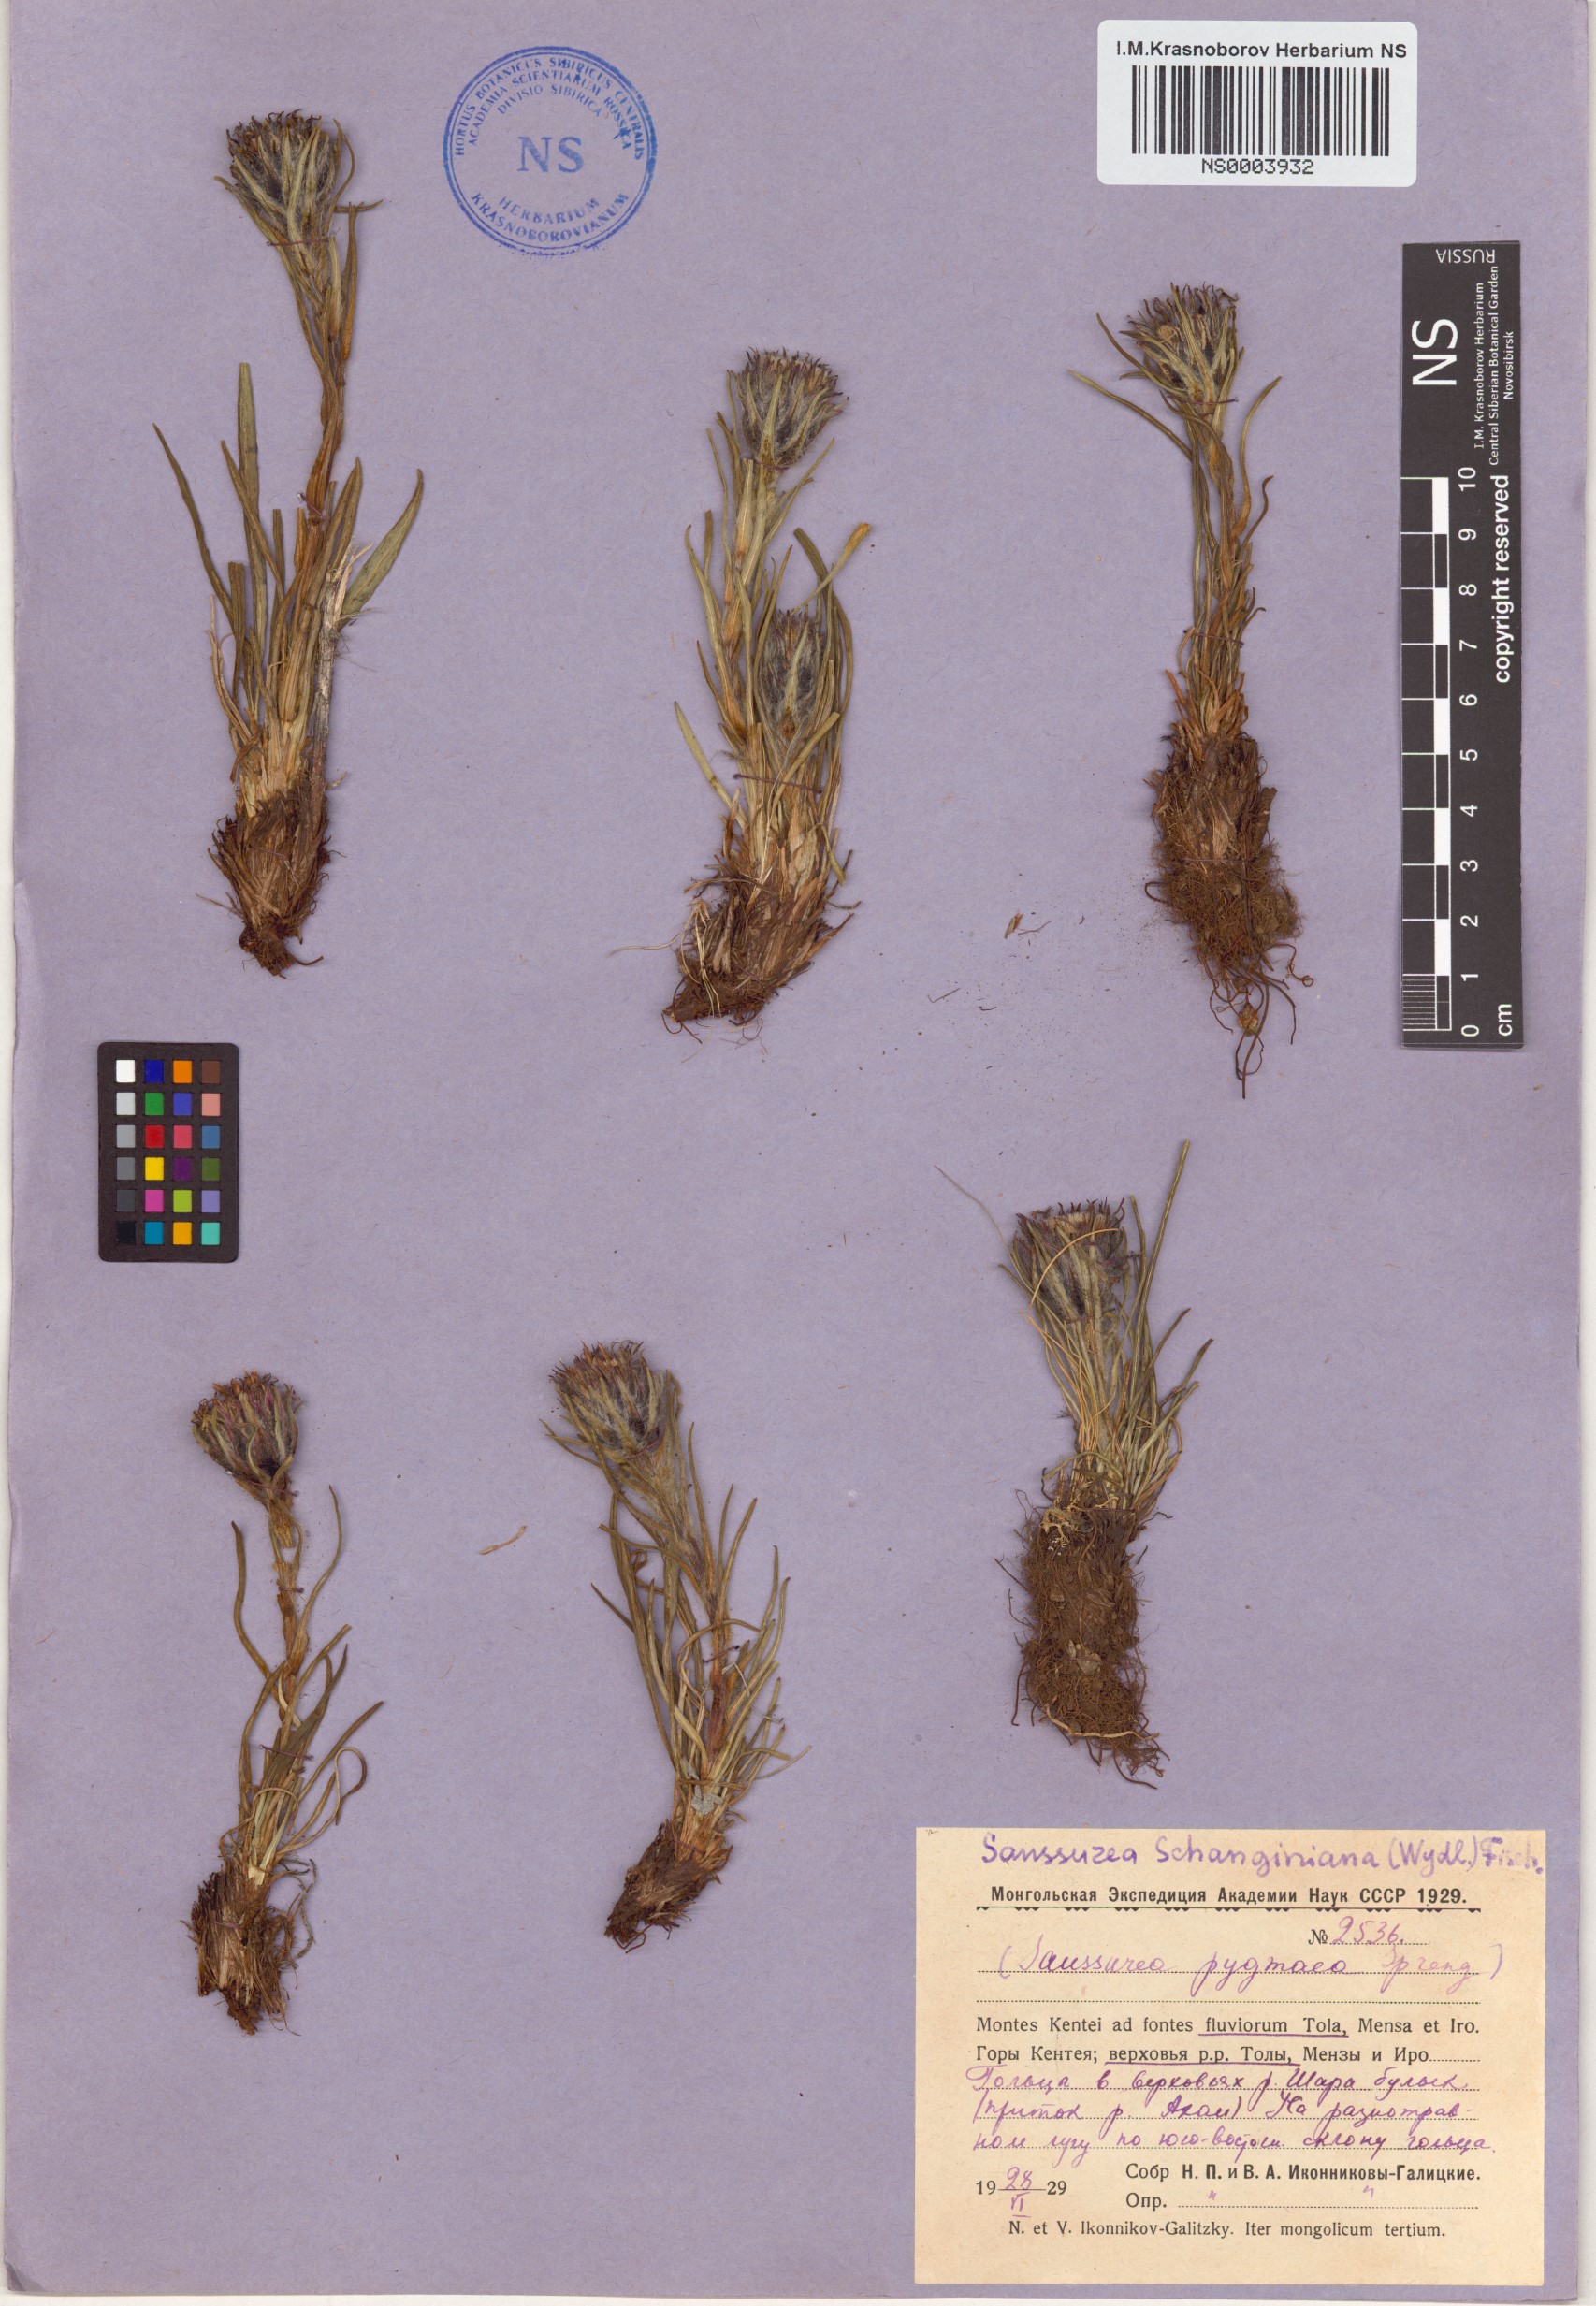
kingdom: Plantae
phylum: Tracheophyta
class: Magnoliopsida
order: Asterales
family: Asteraceae
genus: Saussurea
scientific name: Saussurea schanginiana
